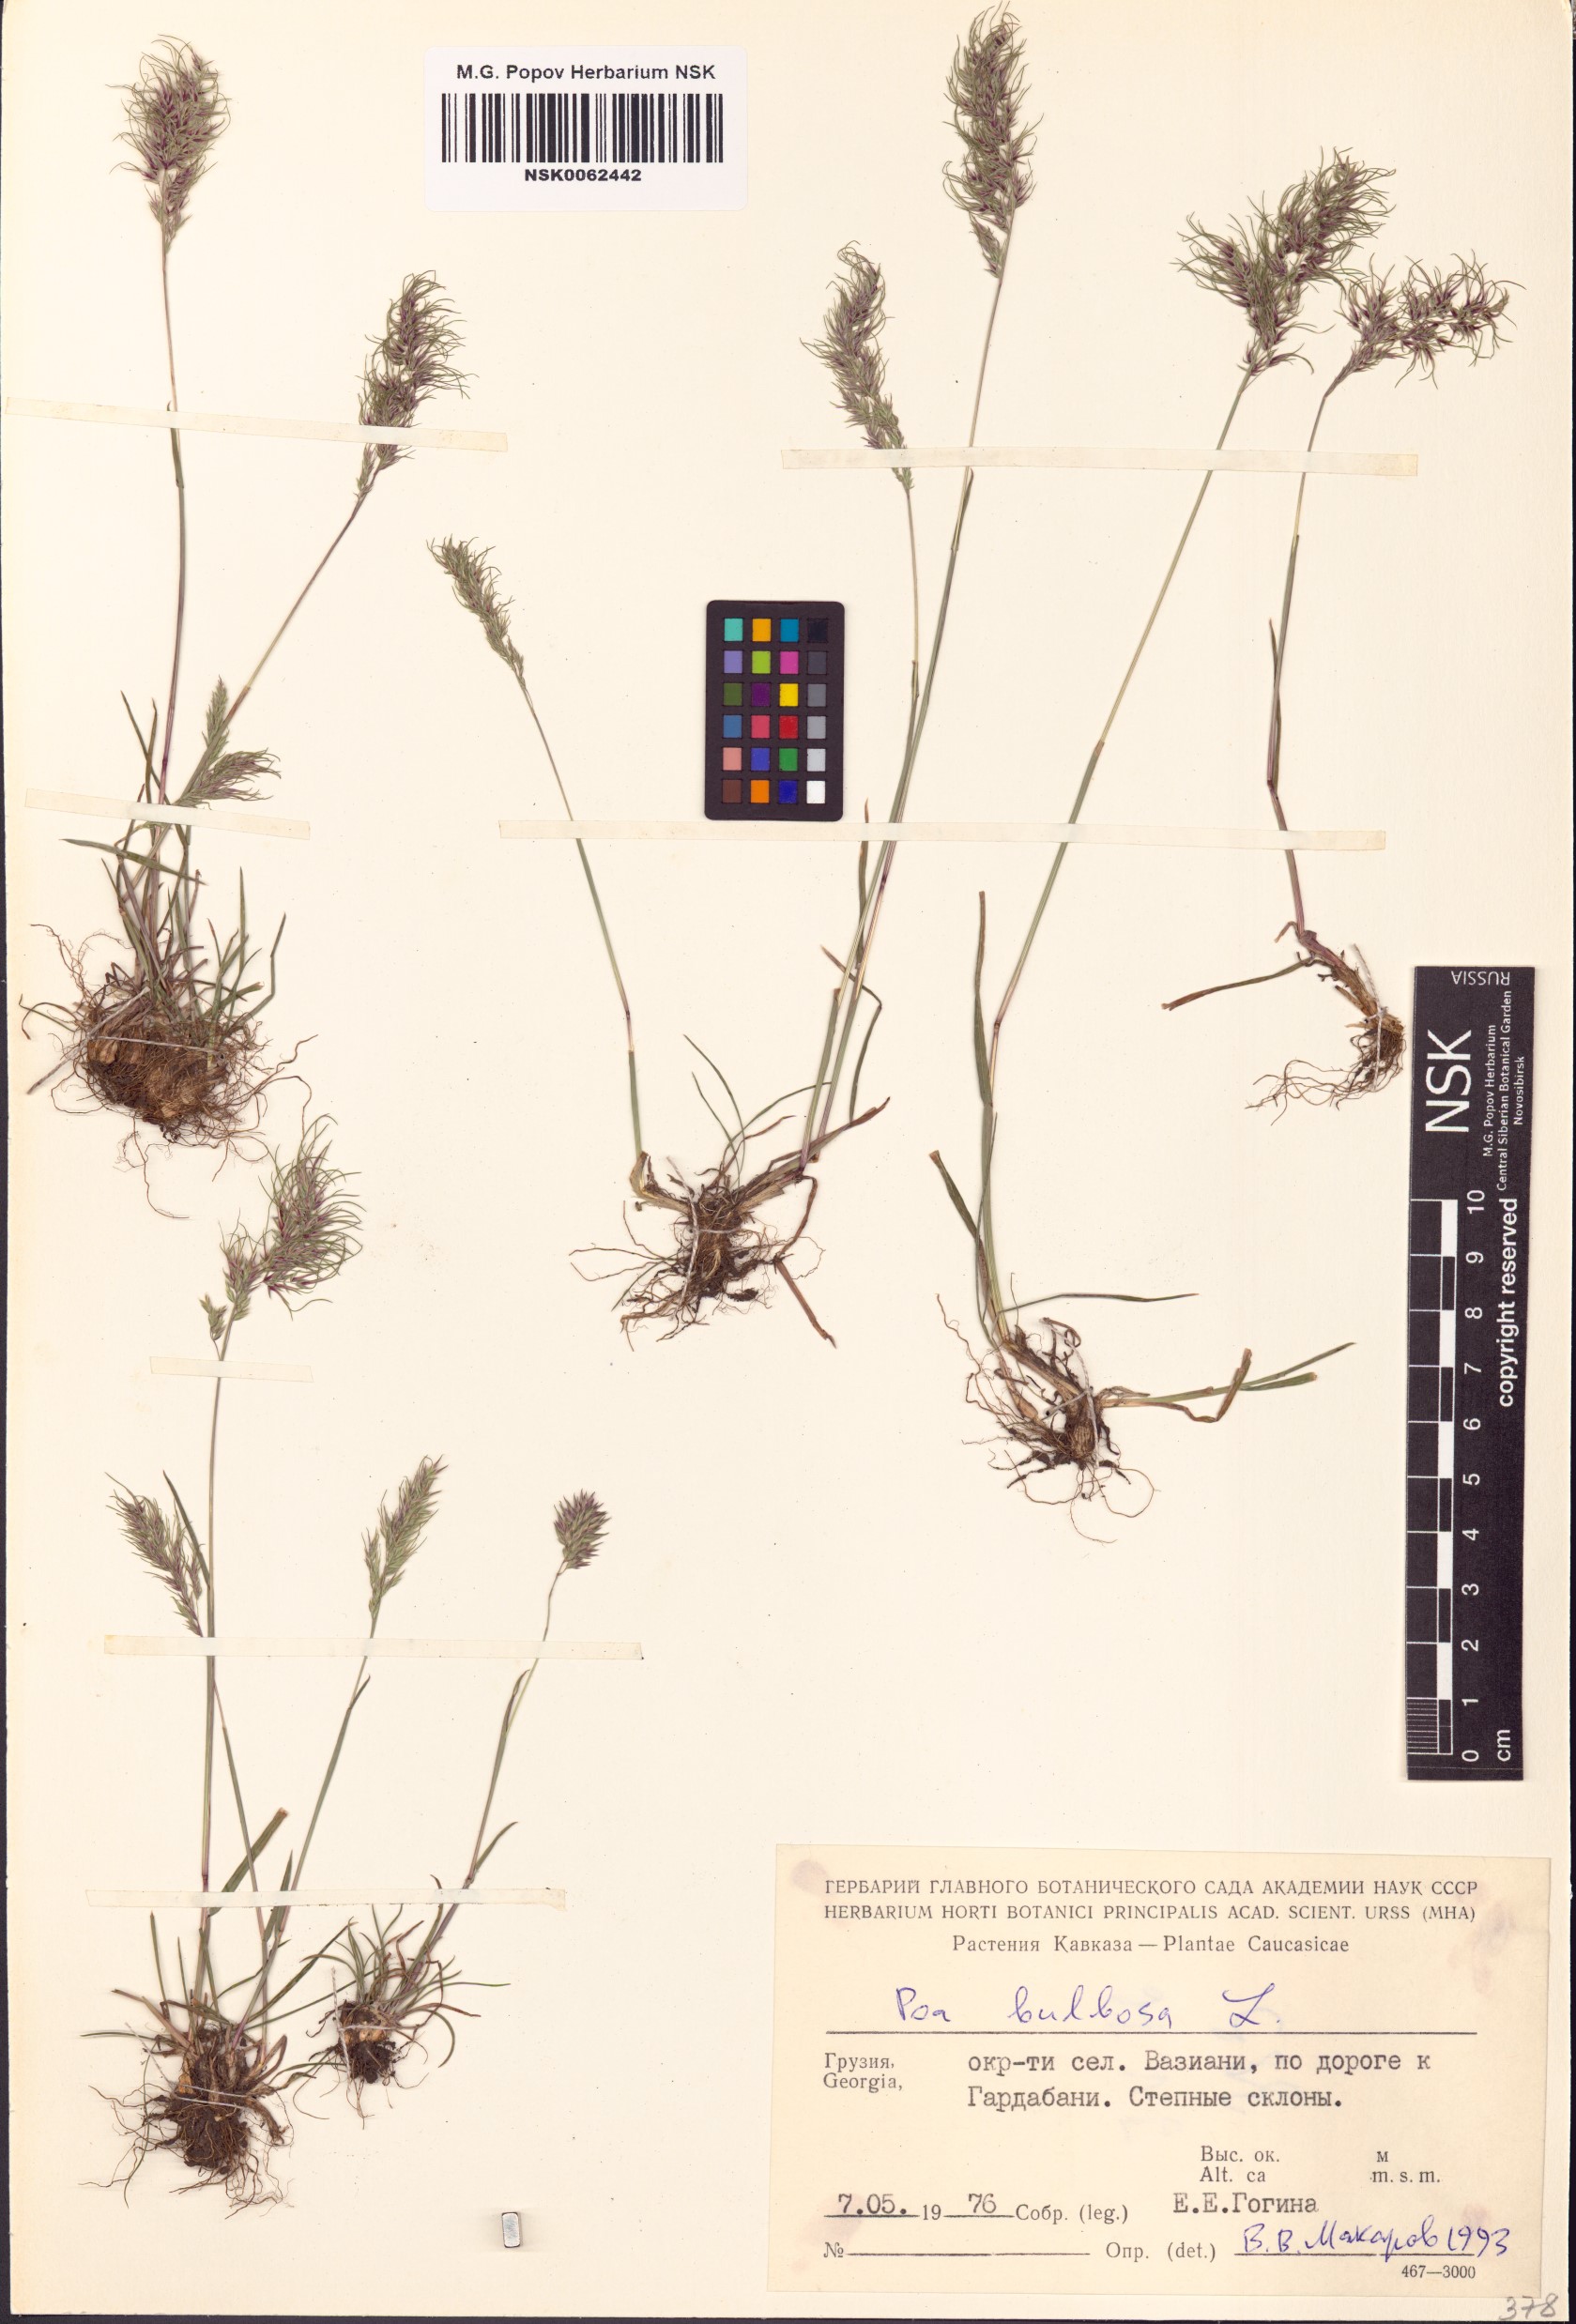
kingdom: Plantae
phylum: Tracheophyta
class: Liliopsida
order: Poales
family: Poaceae
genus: Poa
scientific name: Poa bulbosa
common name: Bulbous bluegrass
